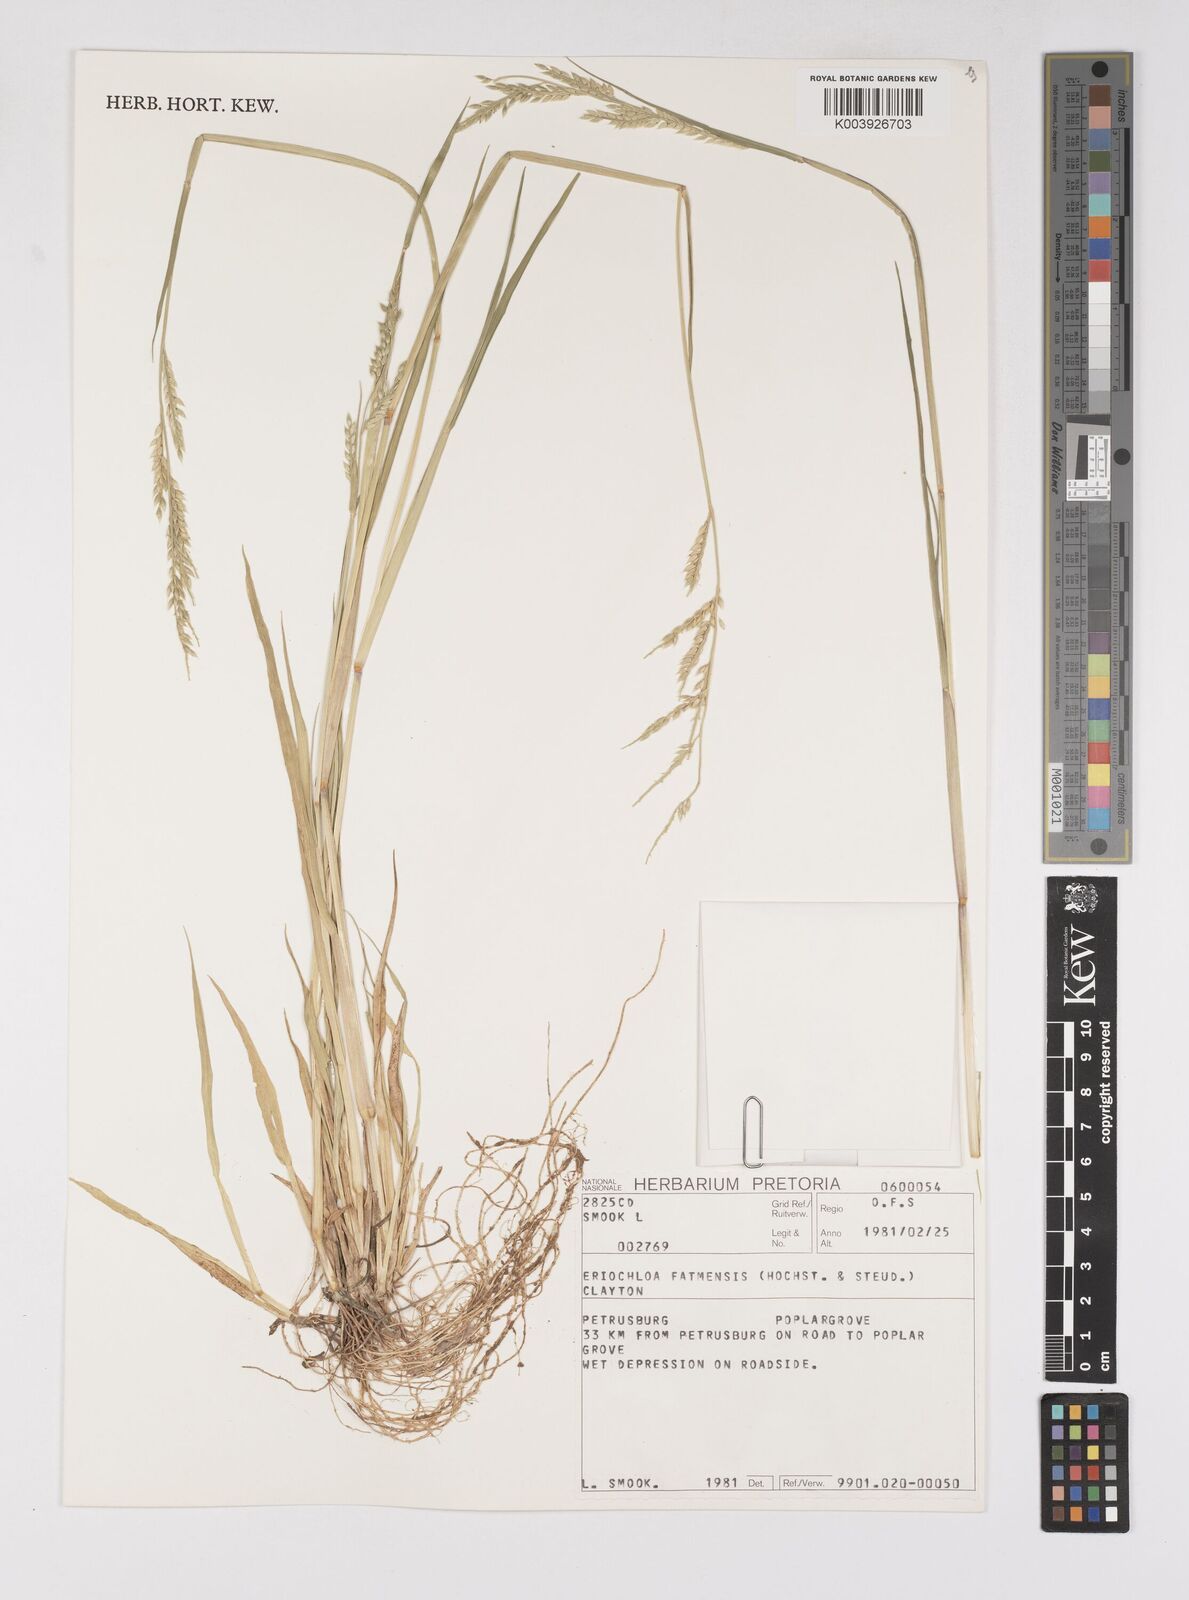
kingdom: Plantae
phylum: Tracheophyta
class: Liliopsida
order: Poales
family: Poaceae
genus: Eriochloa
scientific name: Eriochloa barbatus
